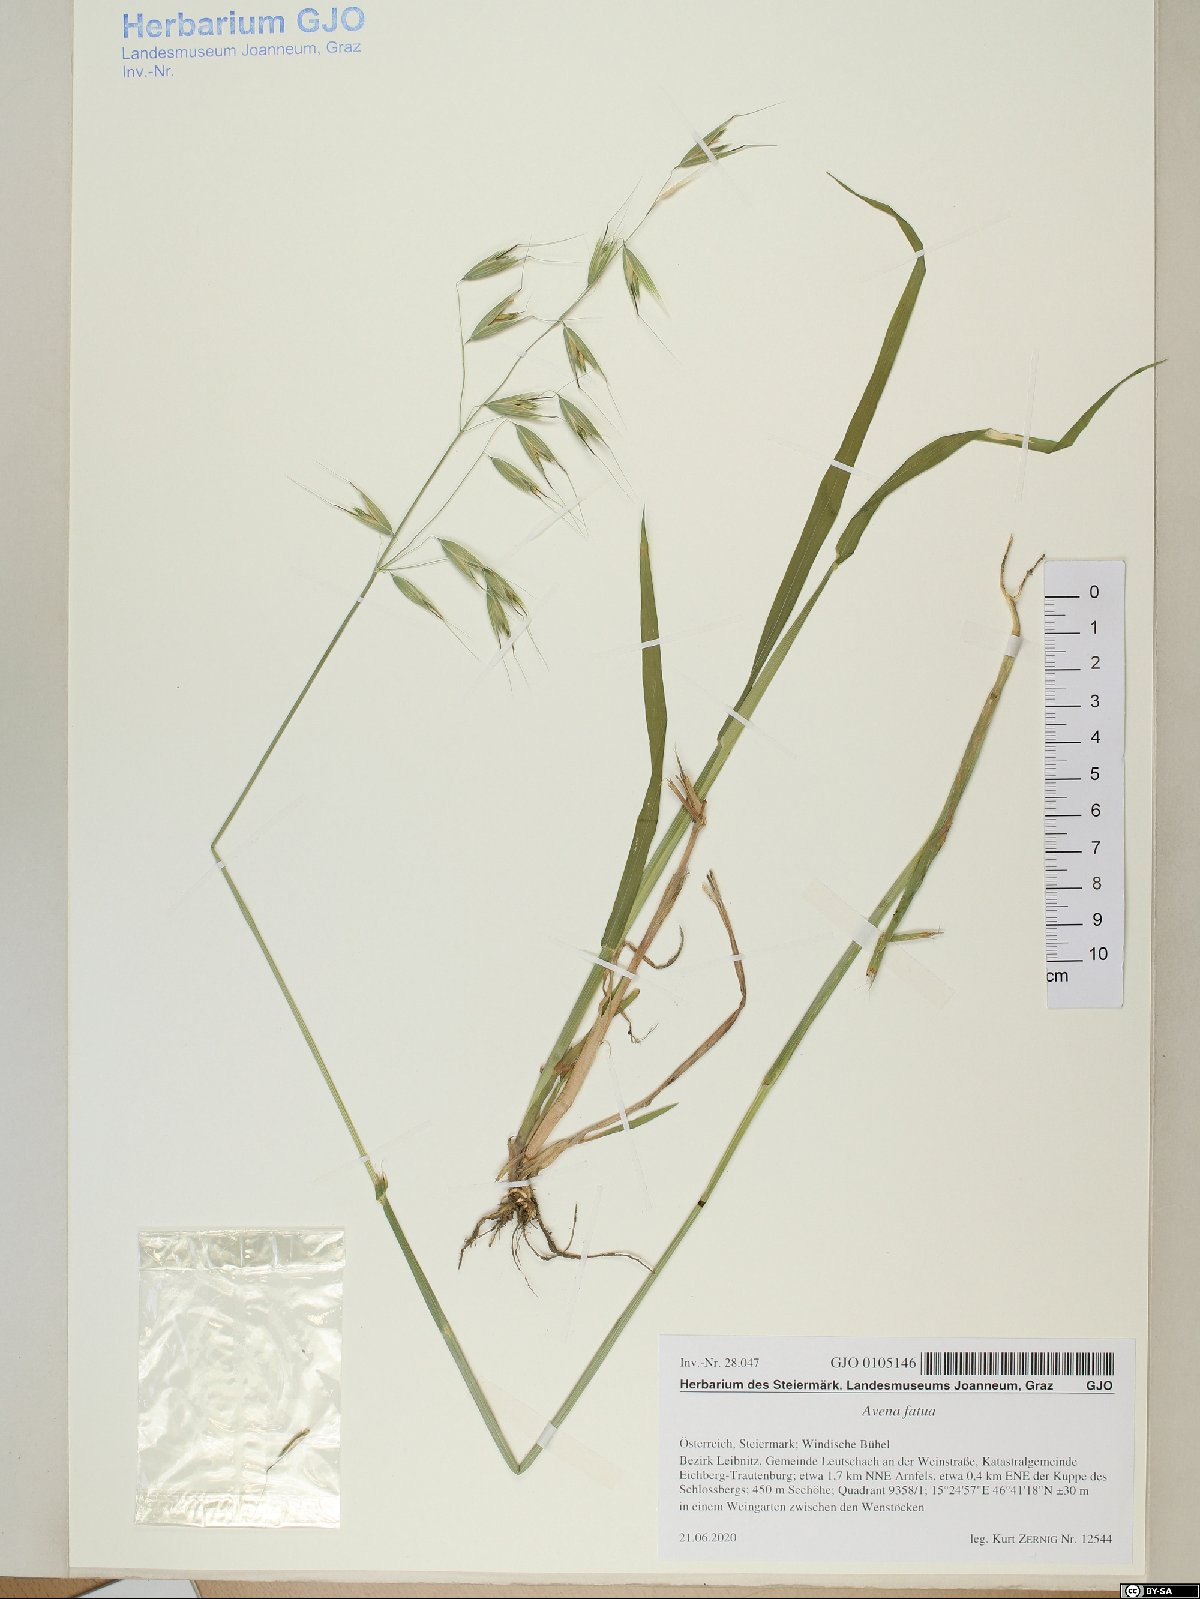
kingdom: Plantae
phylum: Tracheophyta
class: Liliopsida
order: Poales
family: Poaceae
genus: Avena
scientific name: Avena fatua
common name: Wild oat
